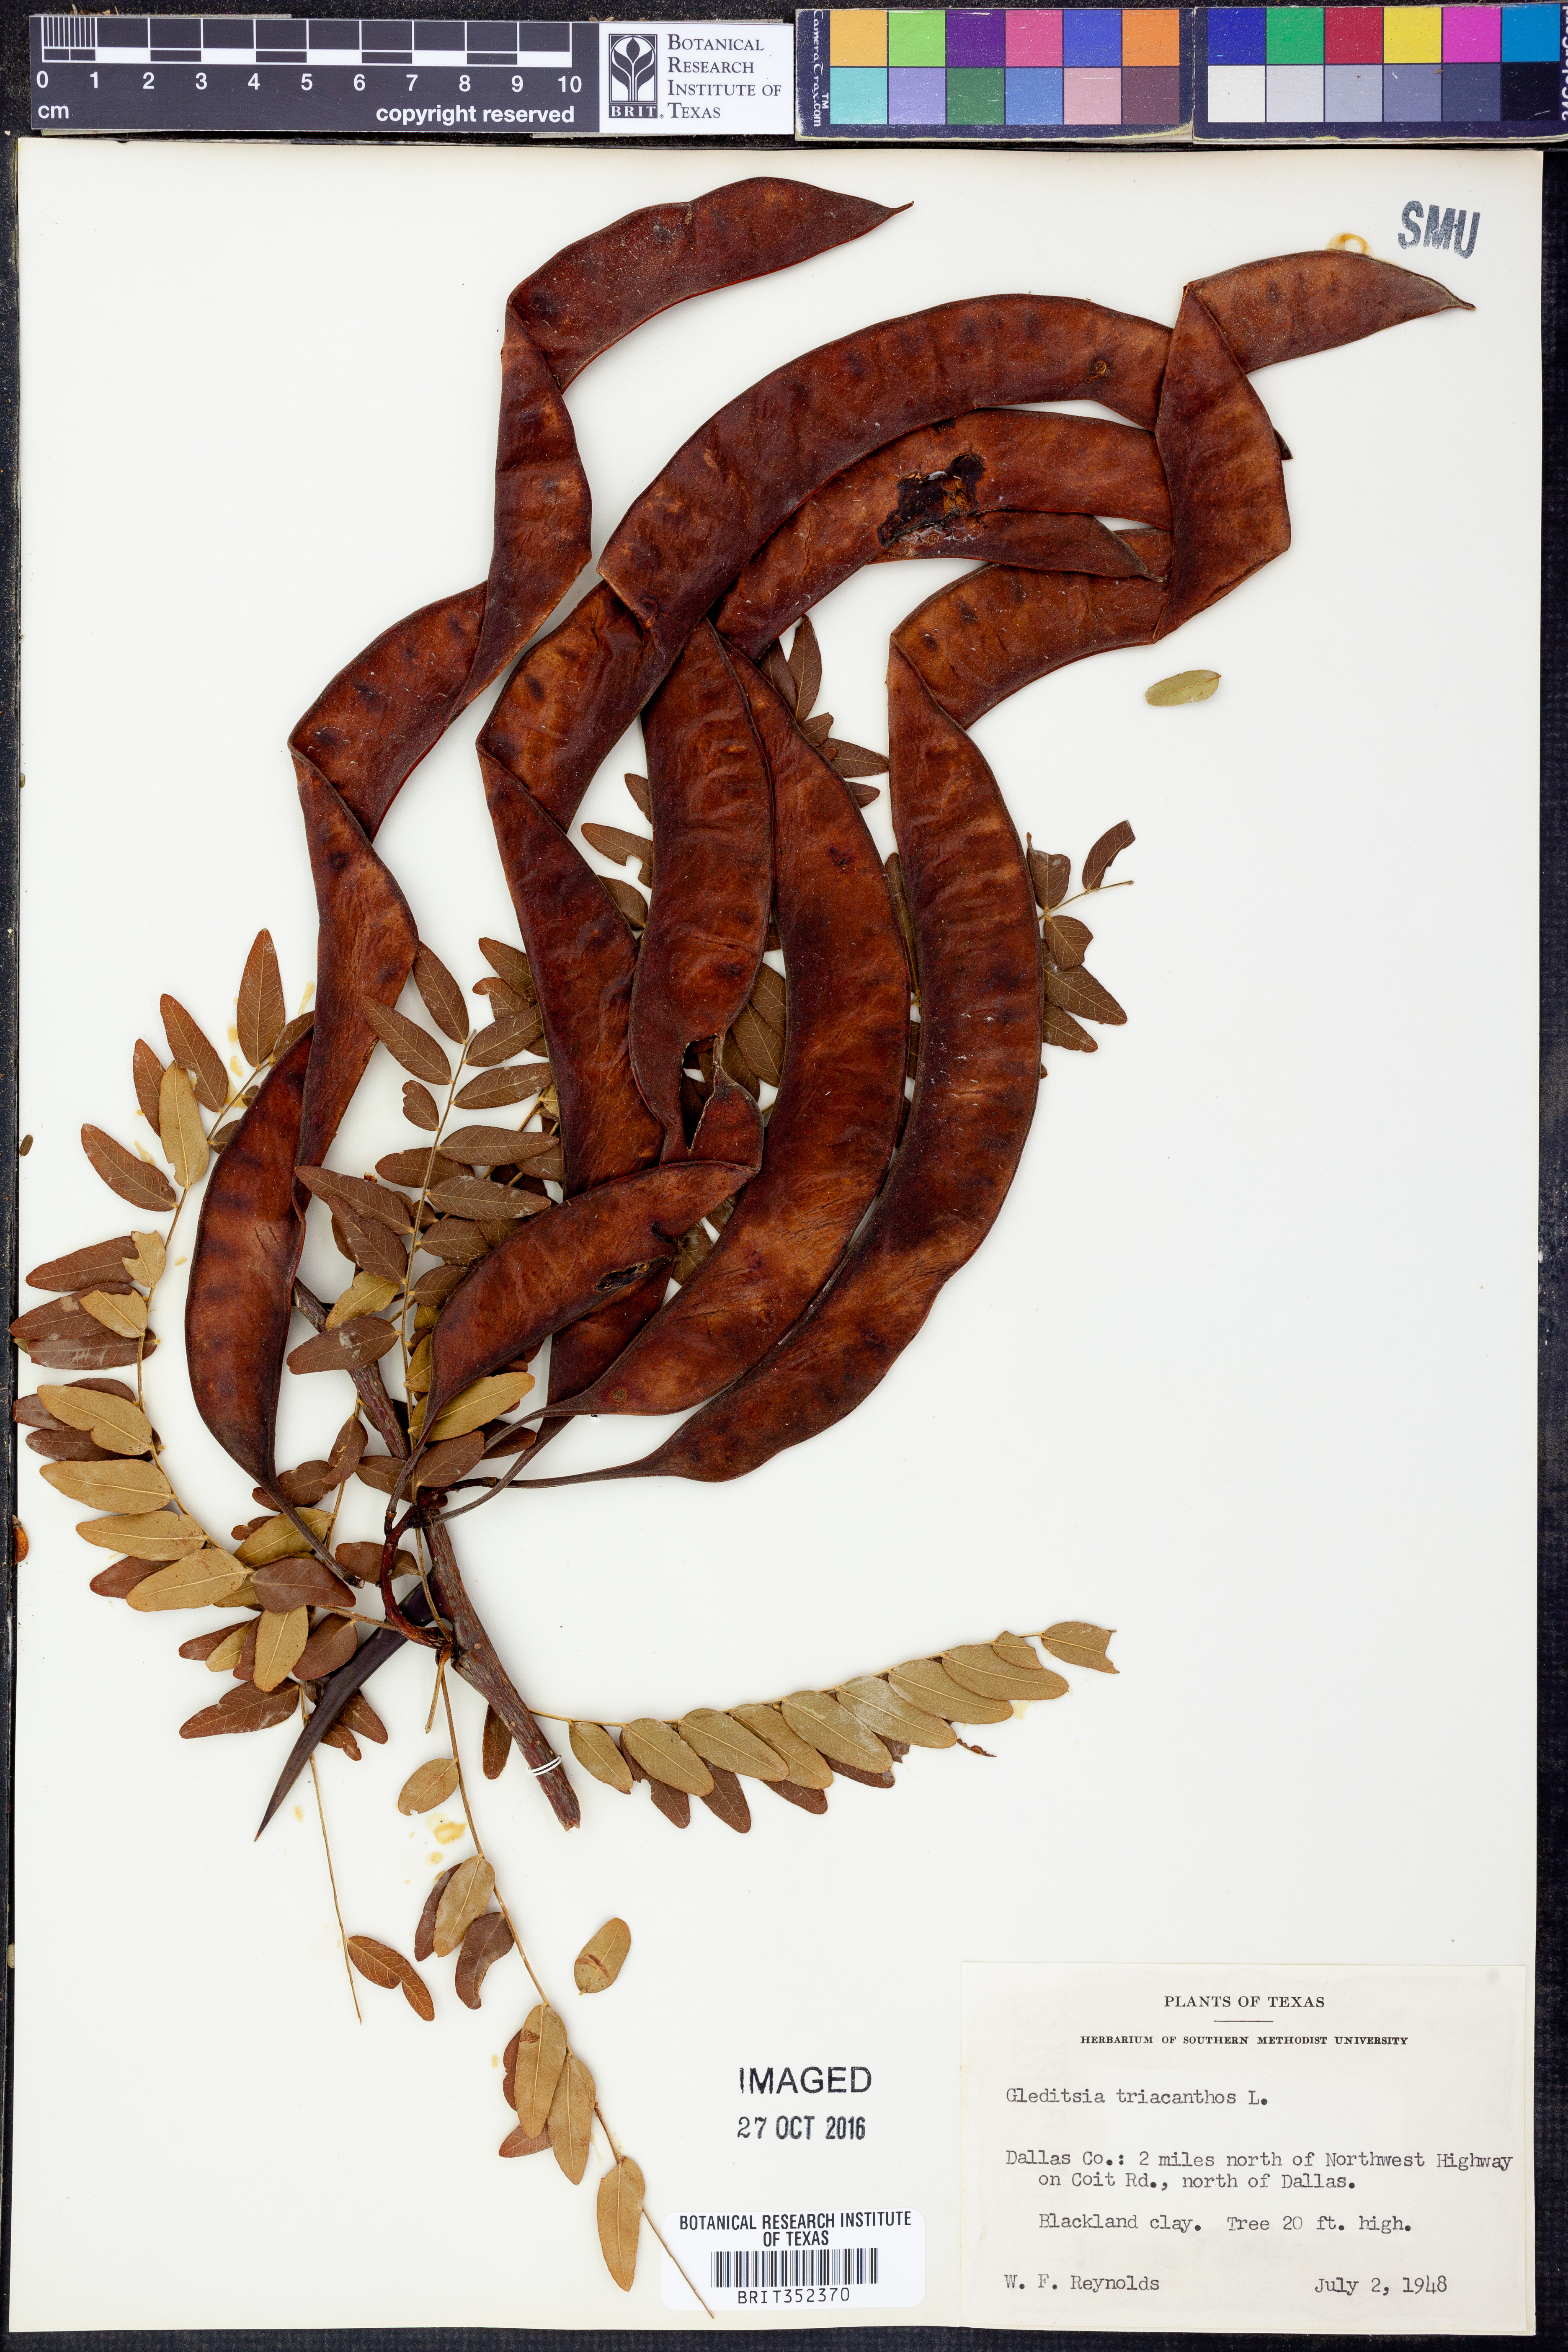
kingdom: Plantae
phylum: Tracheophyta
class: Magnoliopsida
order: Fabales
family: Fabaceae
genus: Gleditsia
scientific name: Gleditsia triacanthos
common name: Common honeylocust
